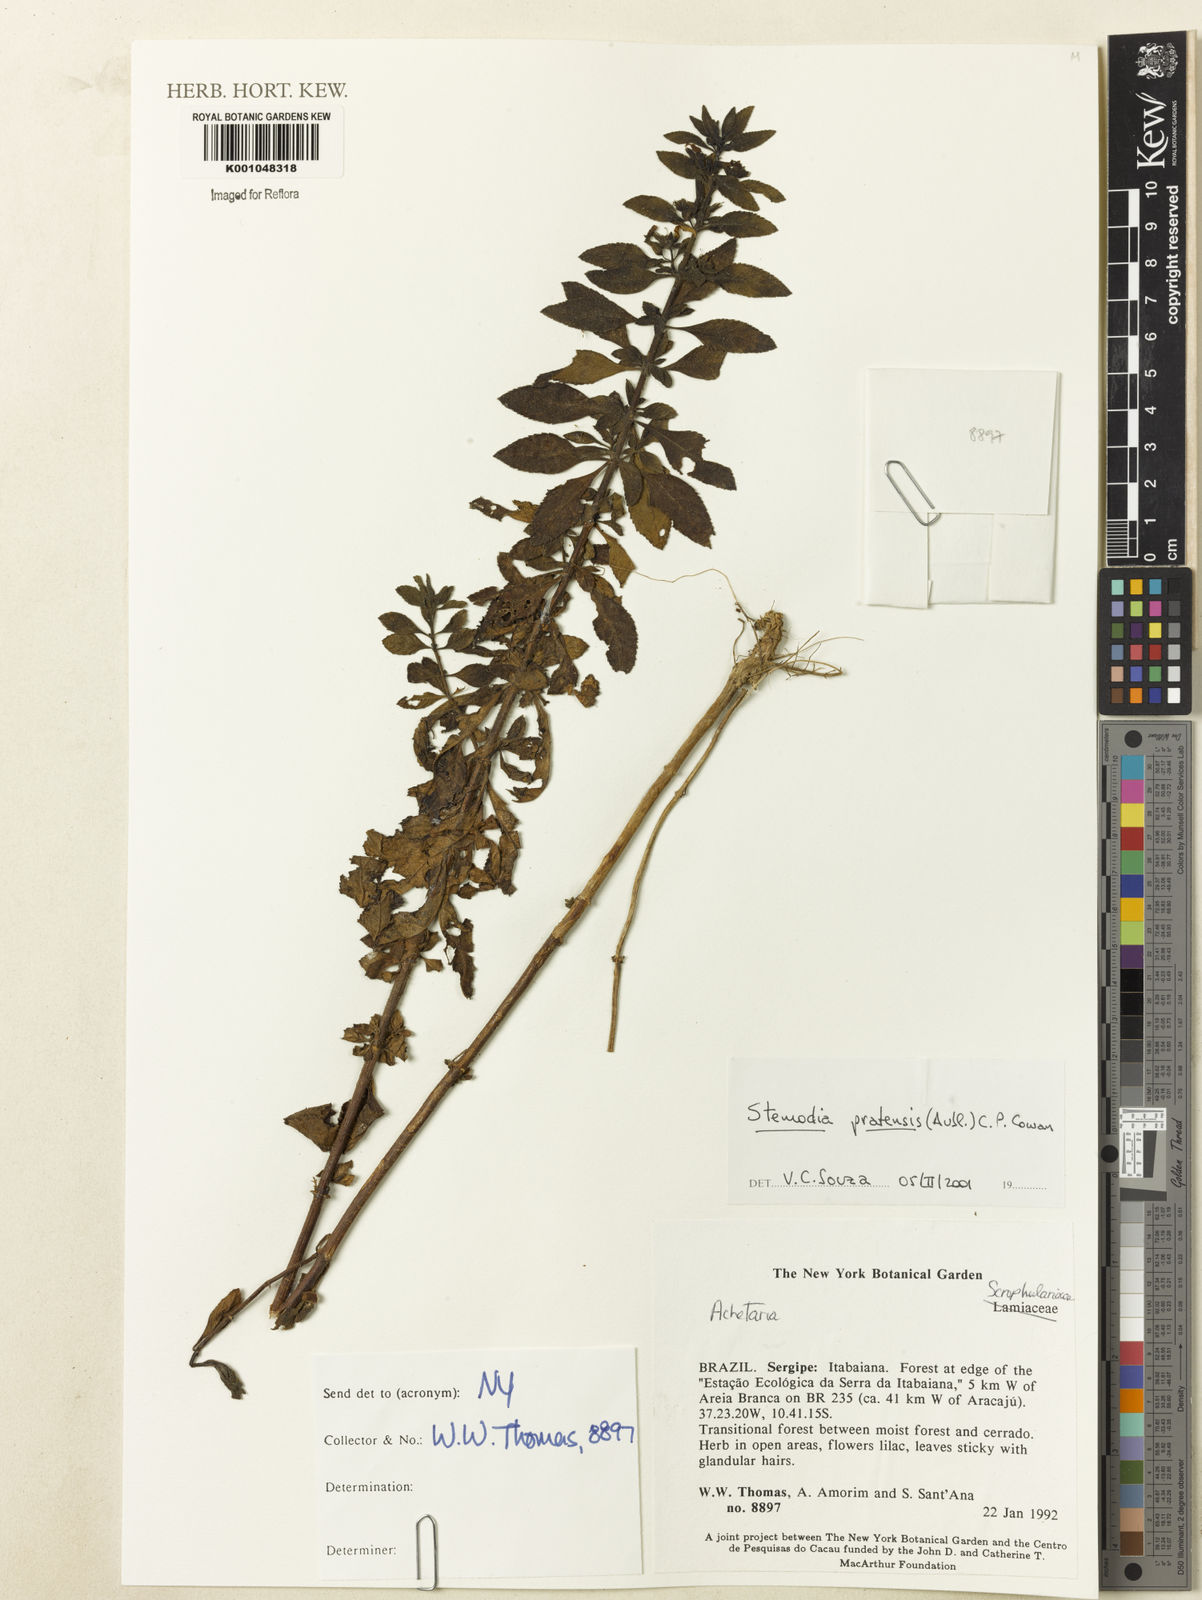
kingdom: Plantae
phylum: Tracheophyta
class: Magnoliopsida
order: Lamiales
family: Plantaginaceae
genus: Stemodia
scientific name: Stemodia foliosa
